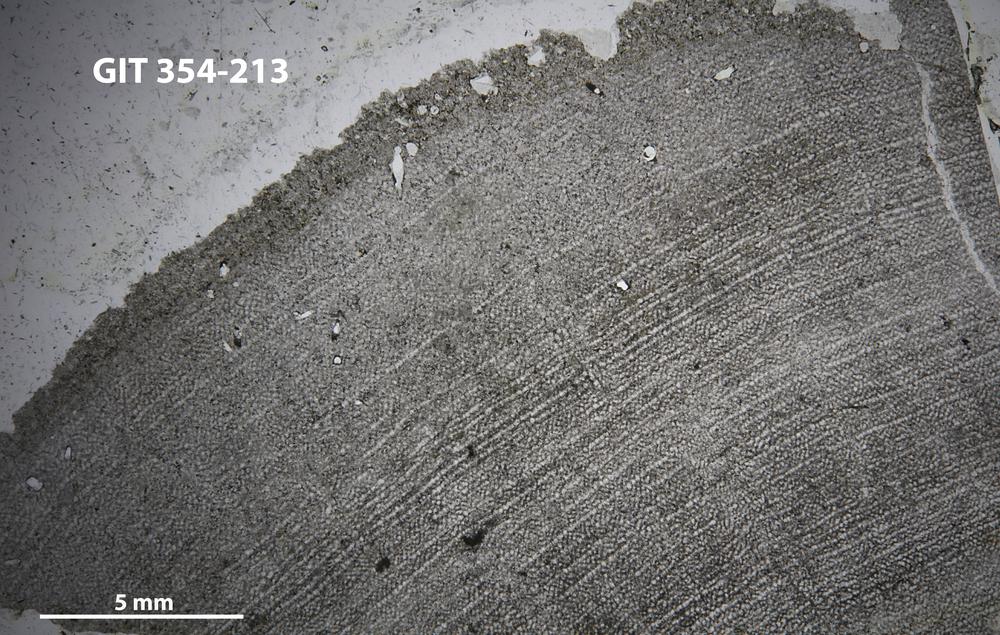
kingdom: Animalia
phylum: Porifera
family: Ecclimadictyidae
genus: Ecclimadictyon
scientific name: Ecclimadictyon Clathrodictyon microvesiculosum
